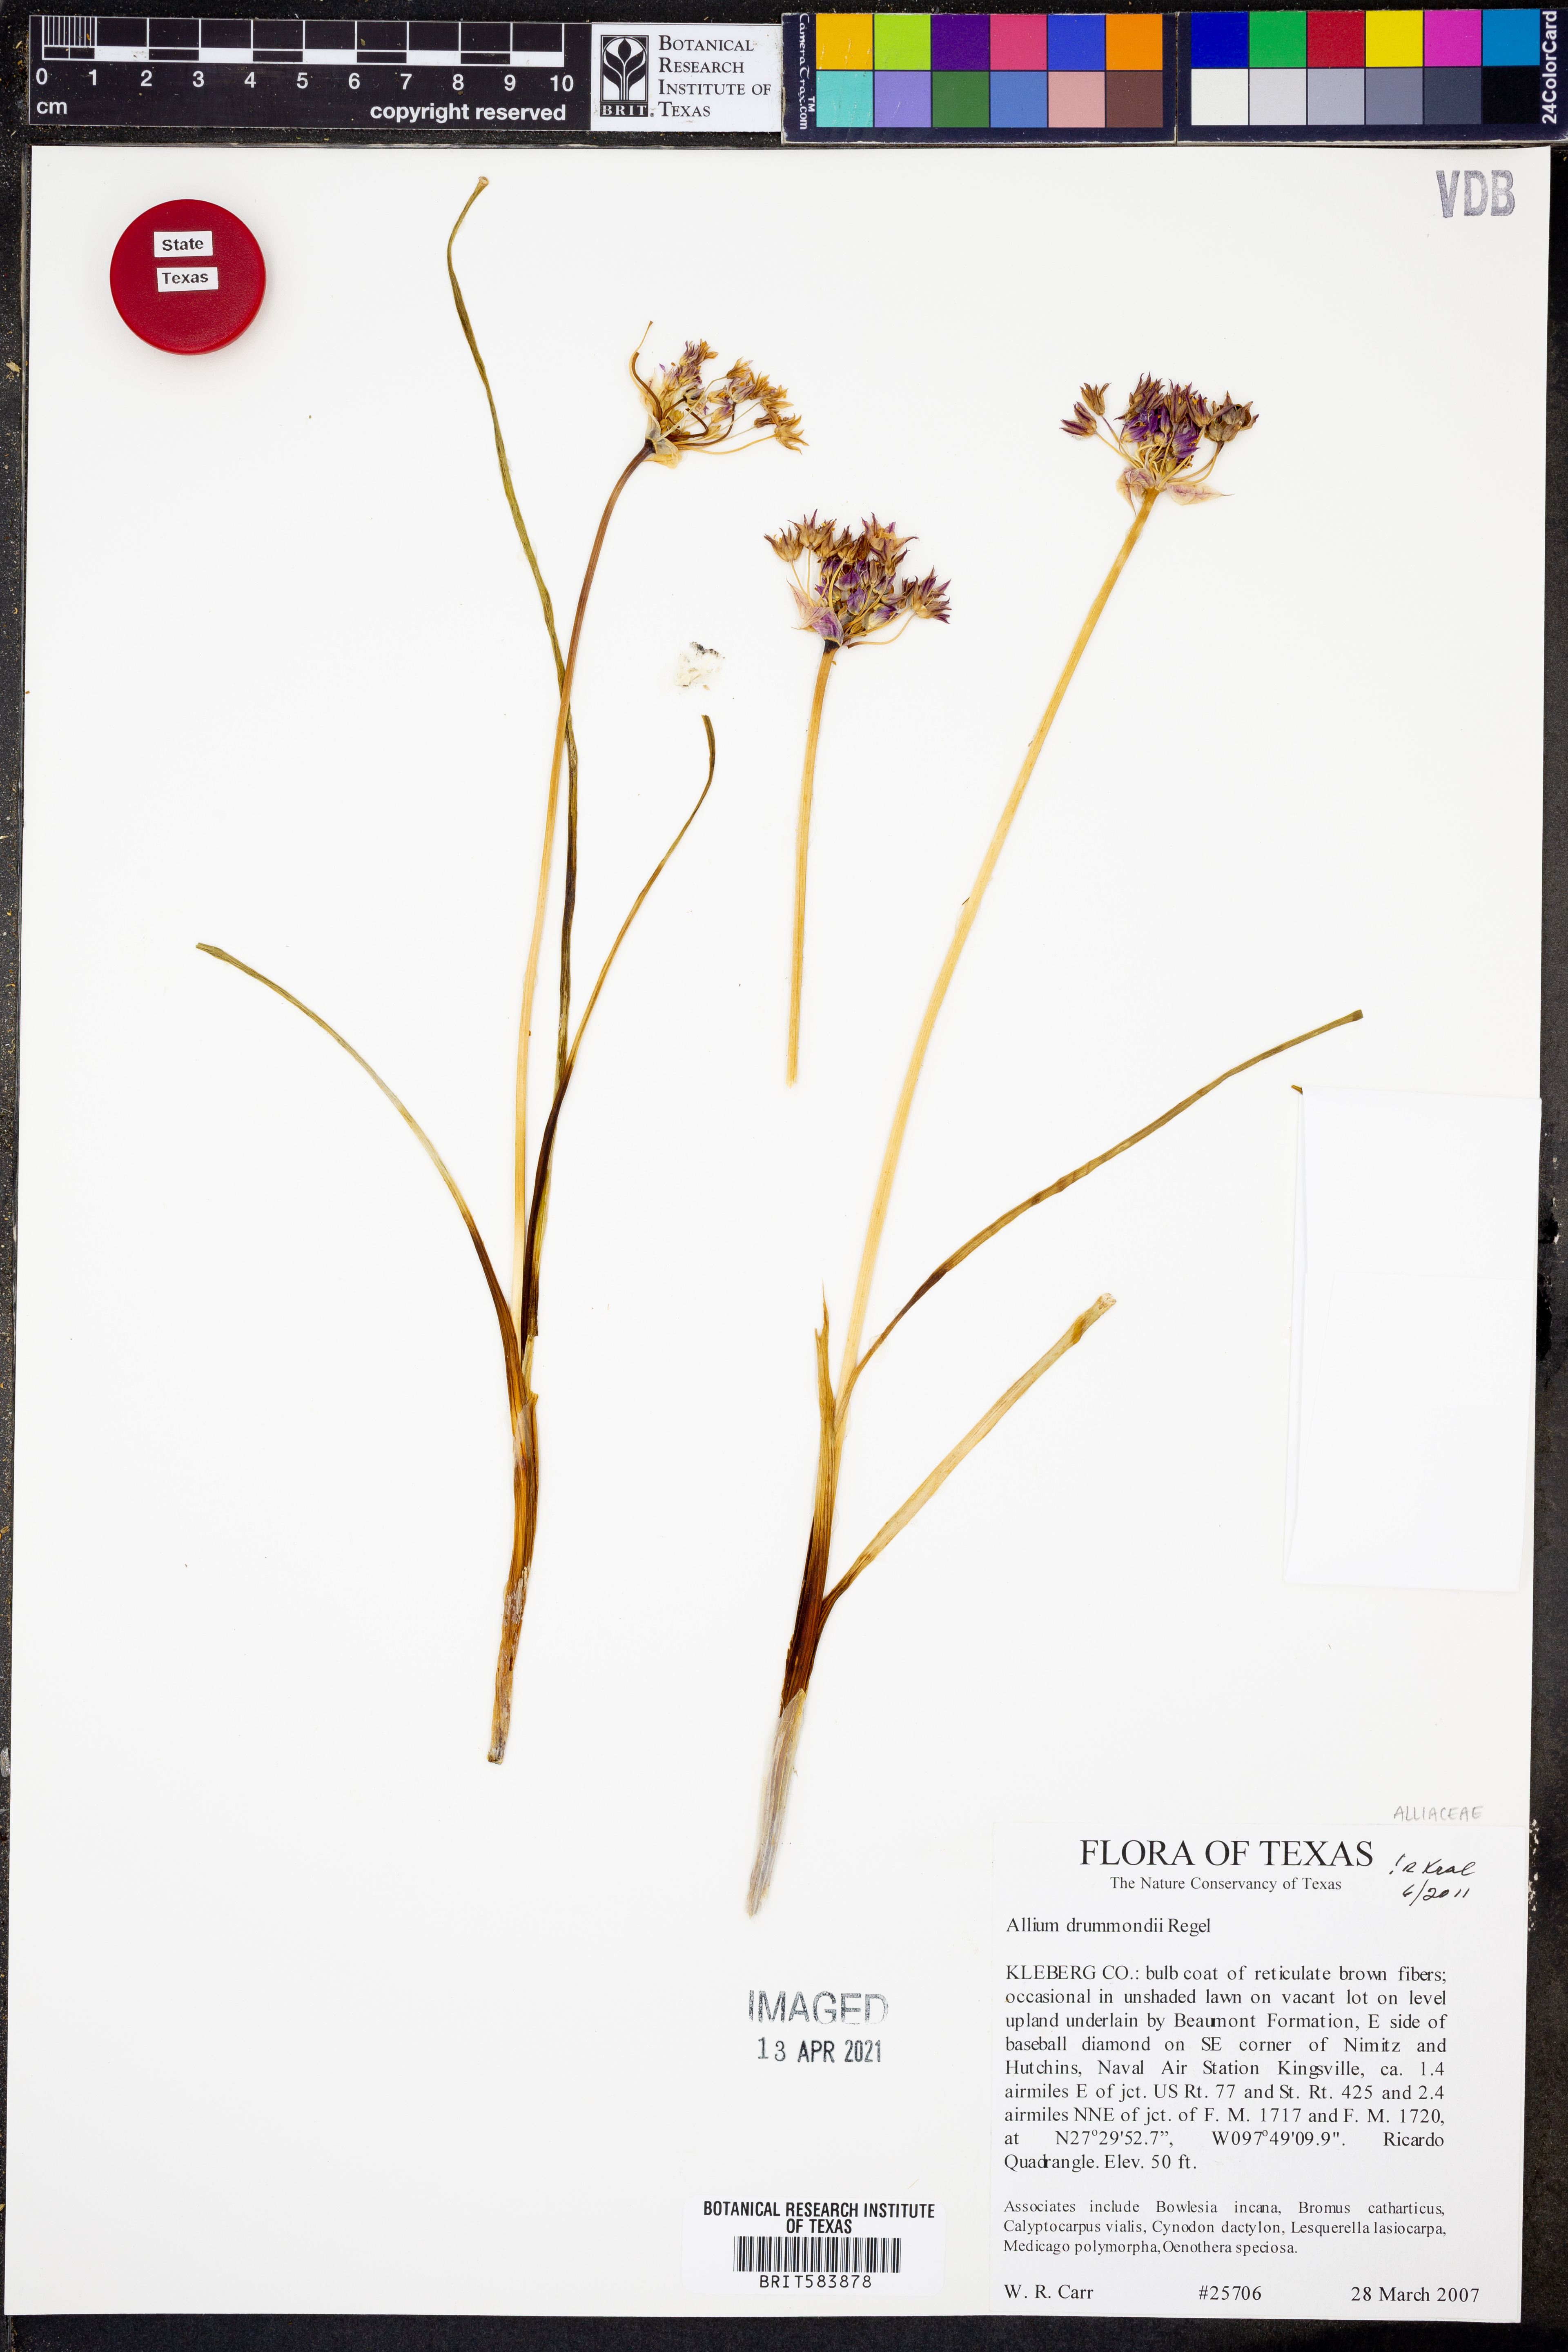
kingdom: Plantae
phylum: Tracheophyta
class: Liliopsida
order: Asparagales
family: Amaryllidaceae
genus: Allium
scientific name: Allium drummondii
